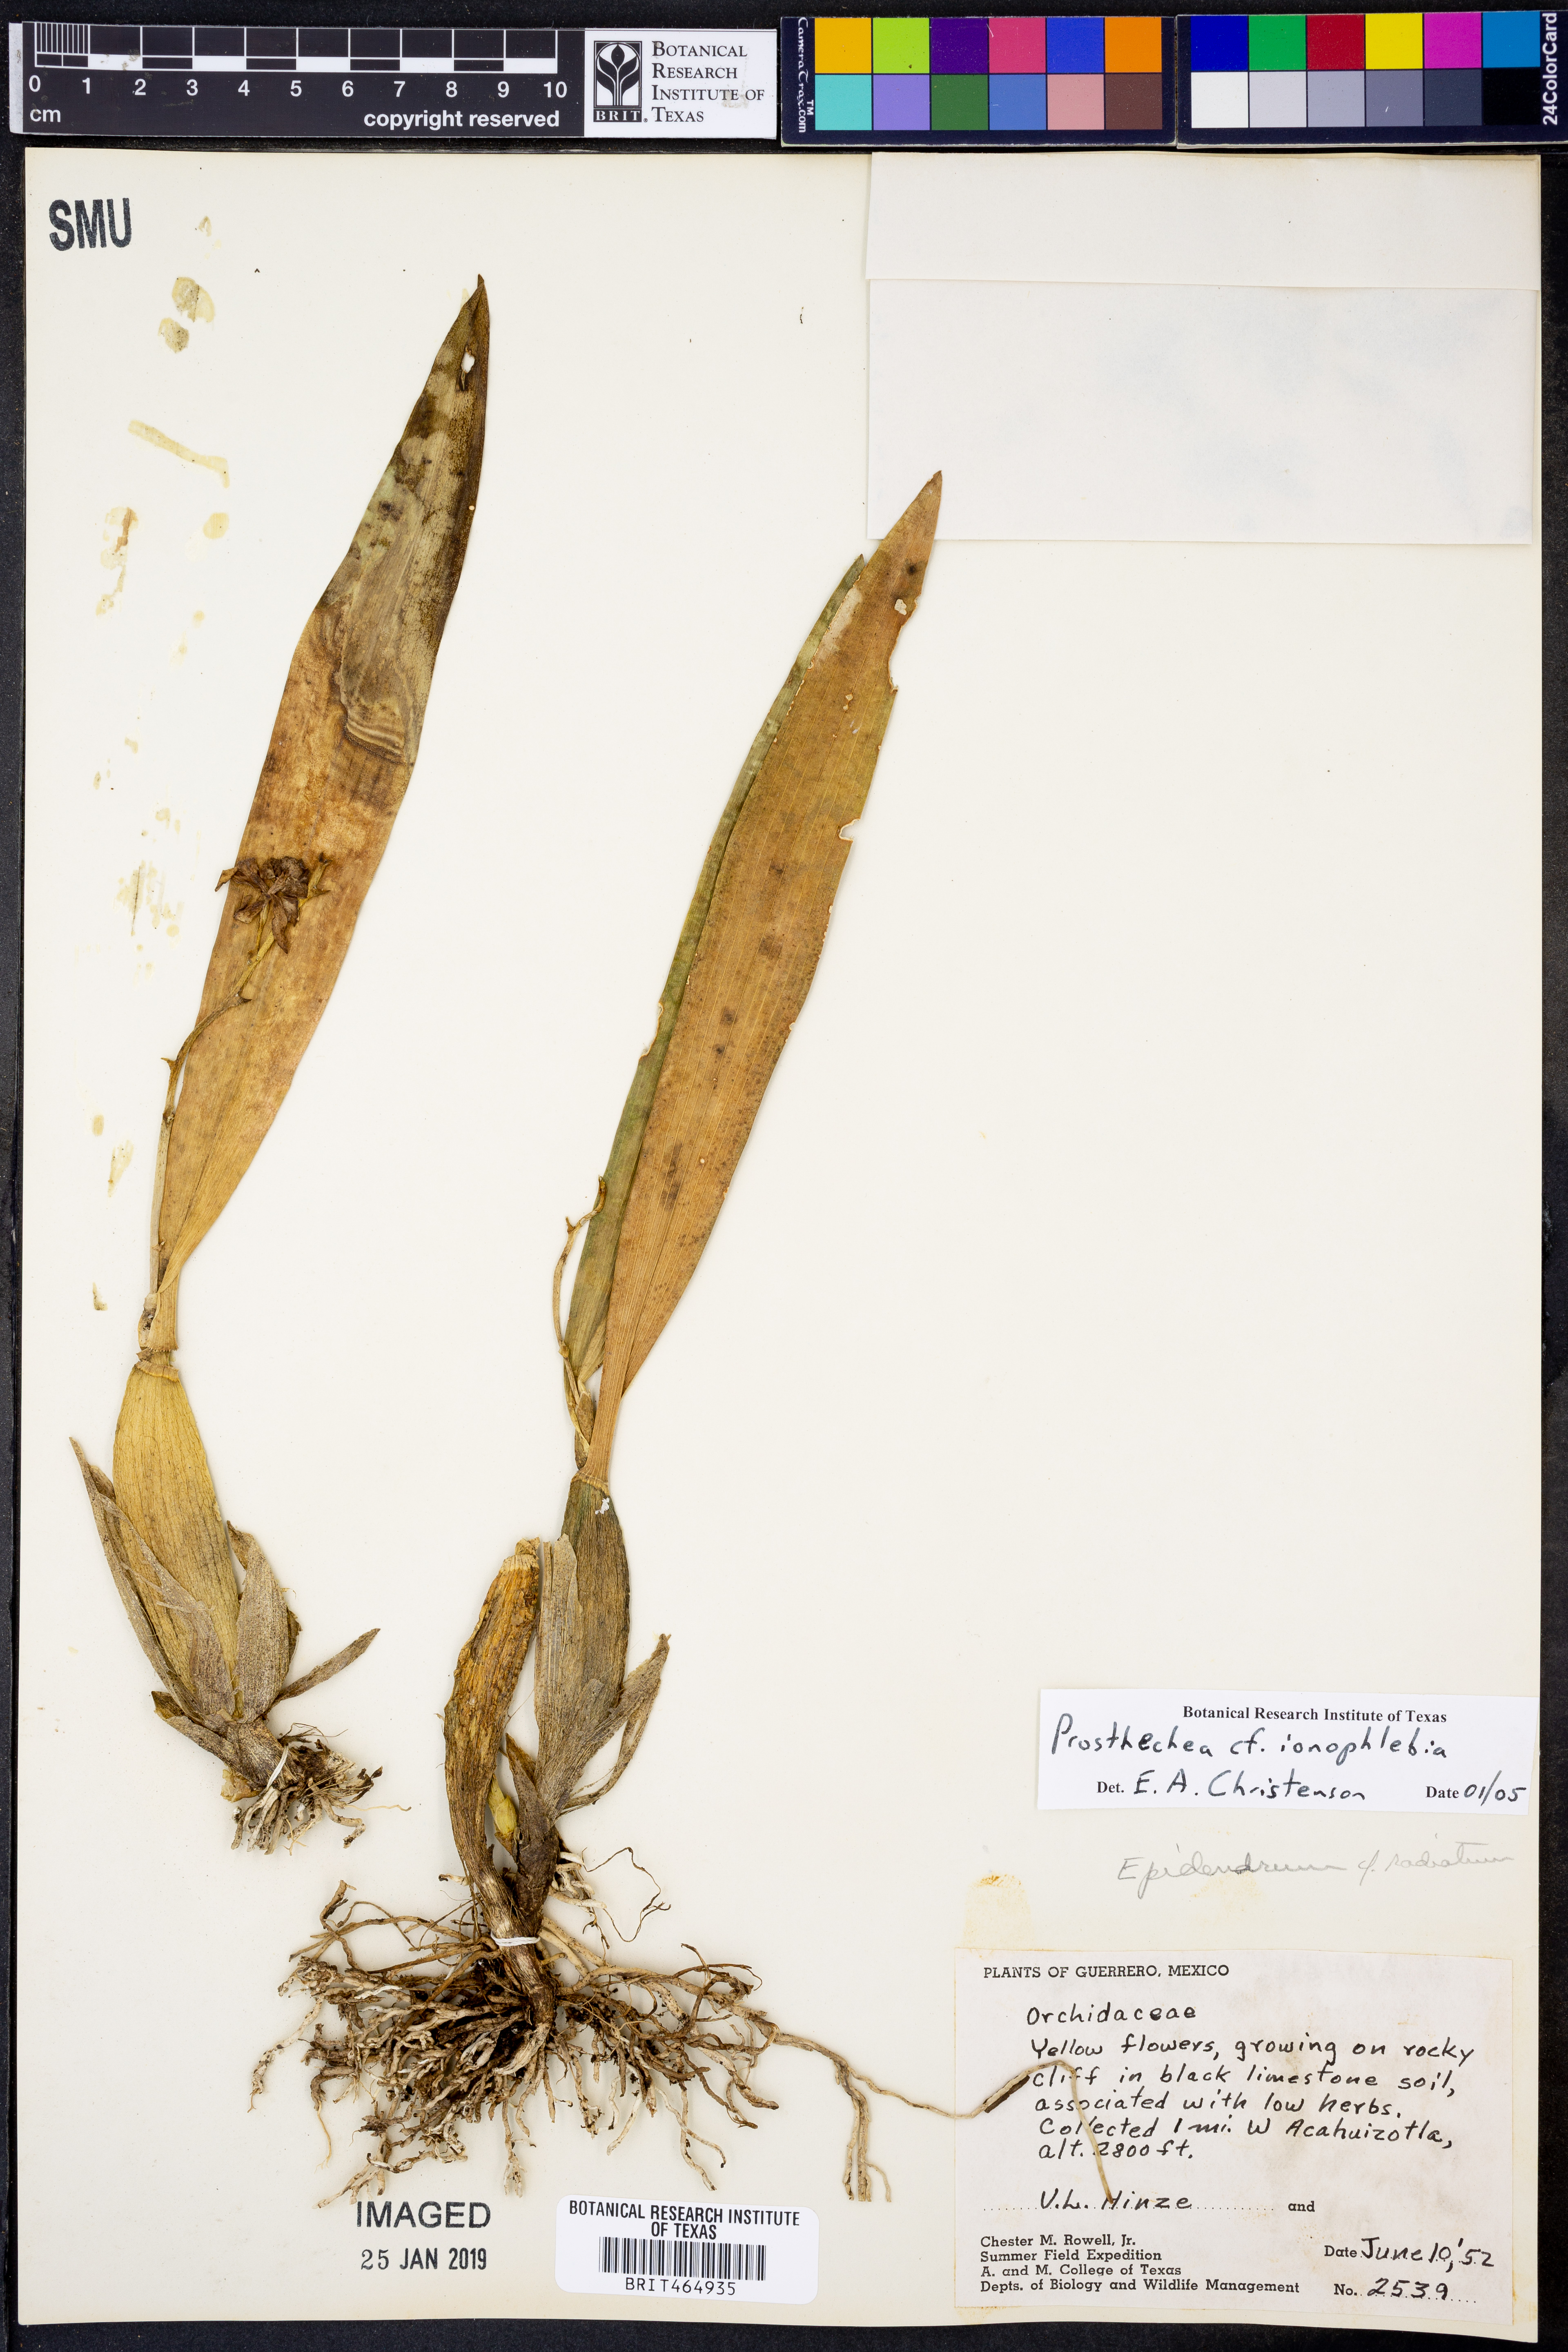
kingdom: Plantae
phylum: Tracheophyta
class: Liliopsida
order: Asparagales
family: Orchidaceae
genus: Prosthechea
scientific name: Prosthechea ionophlebia
